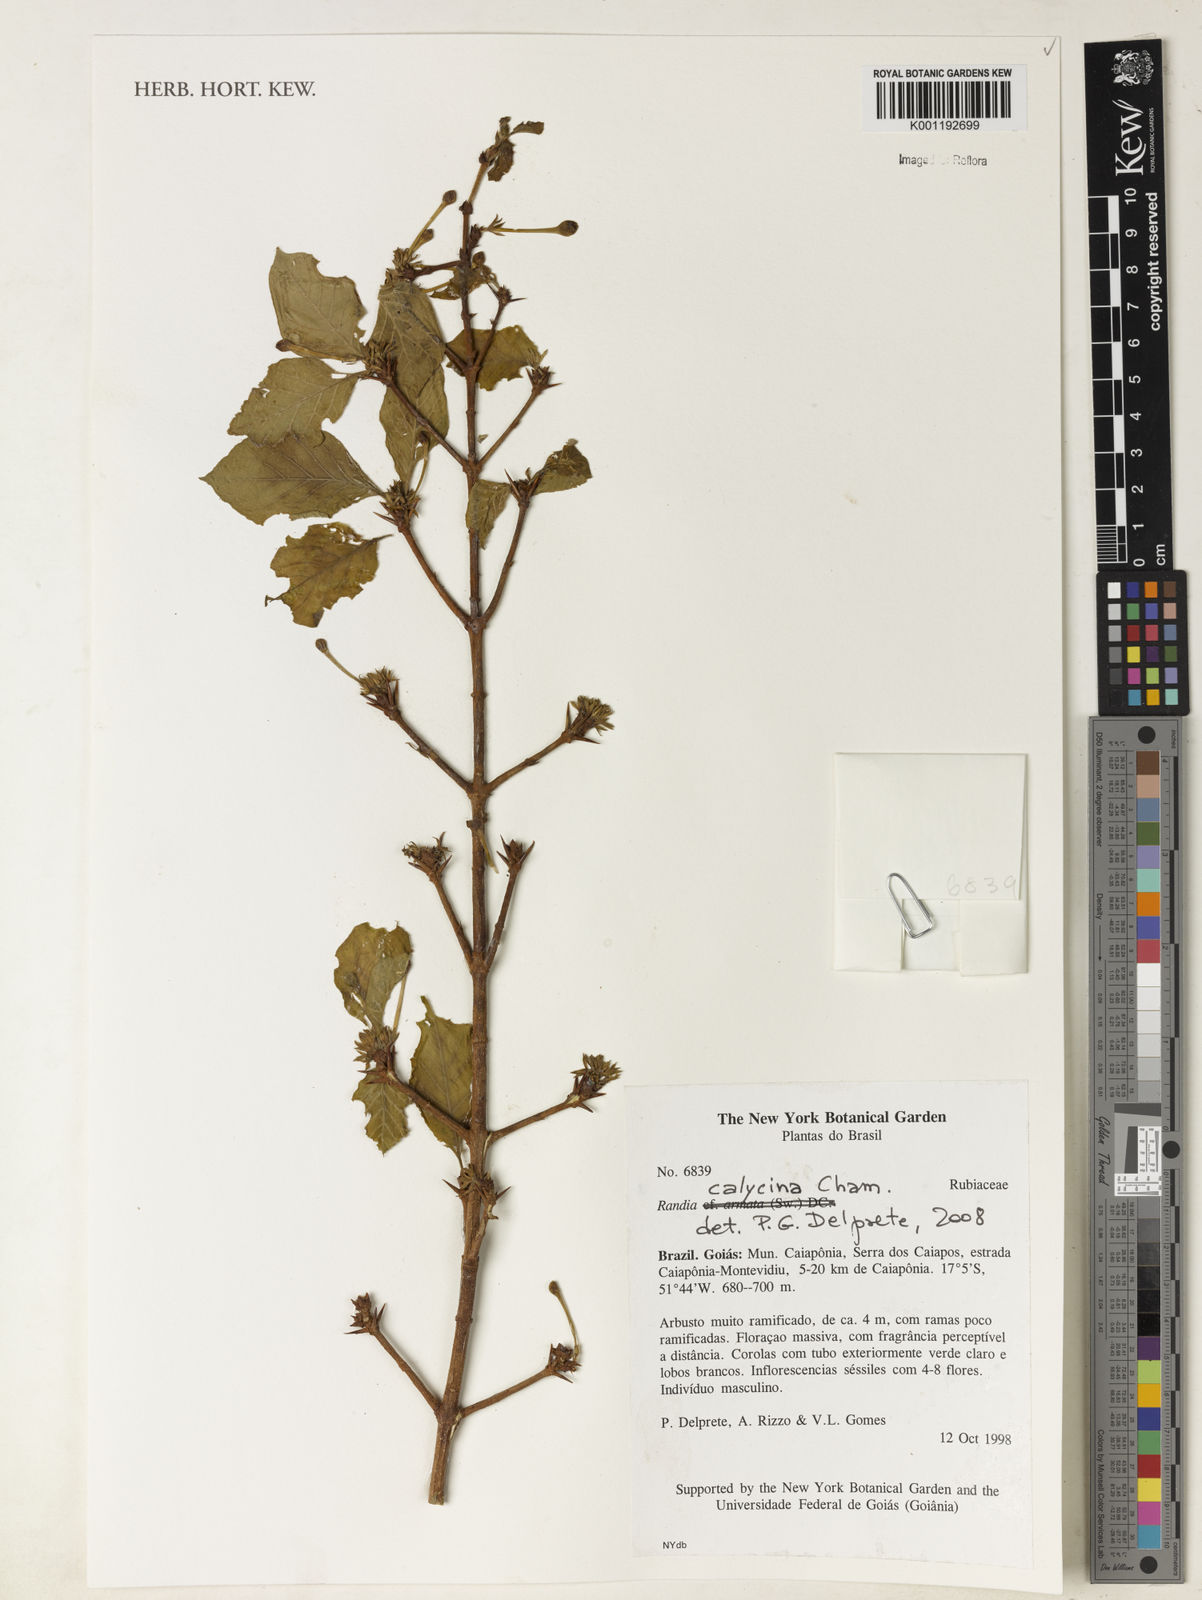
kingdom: Plantae
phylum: Tracheophyta
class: Magnoliopsida
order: Gentianales
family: Rubiaceae
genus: Randia
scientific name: Randia calycina
